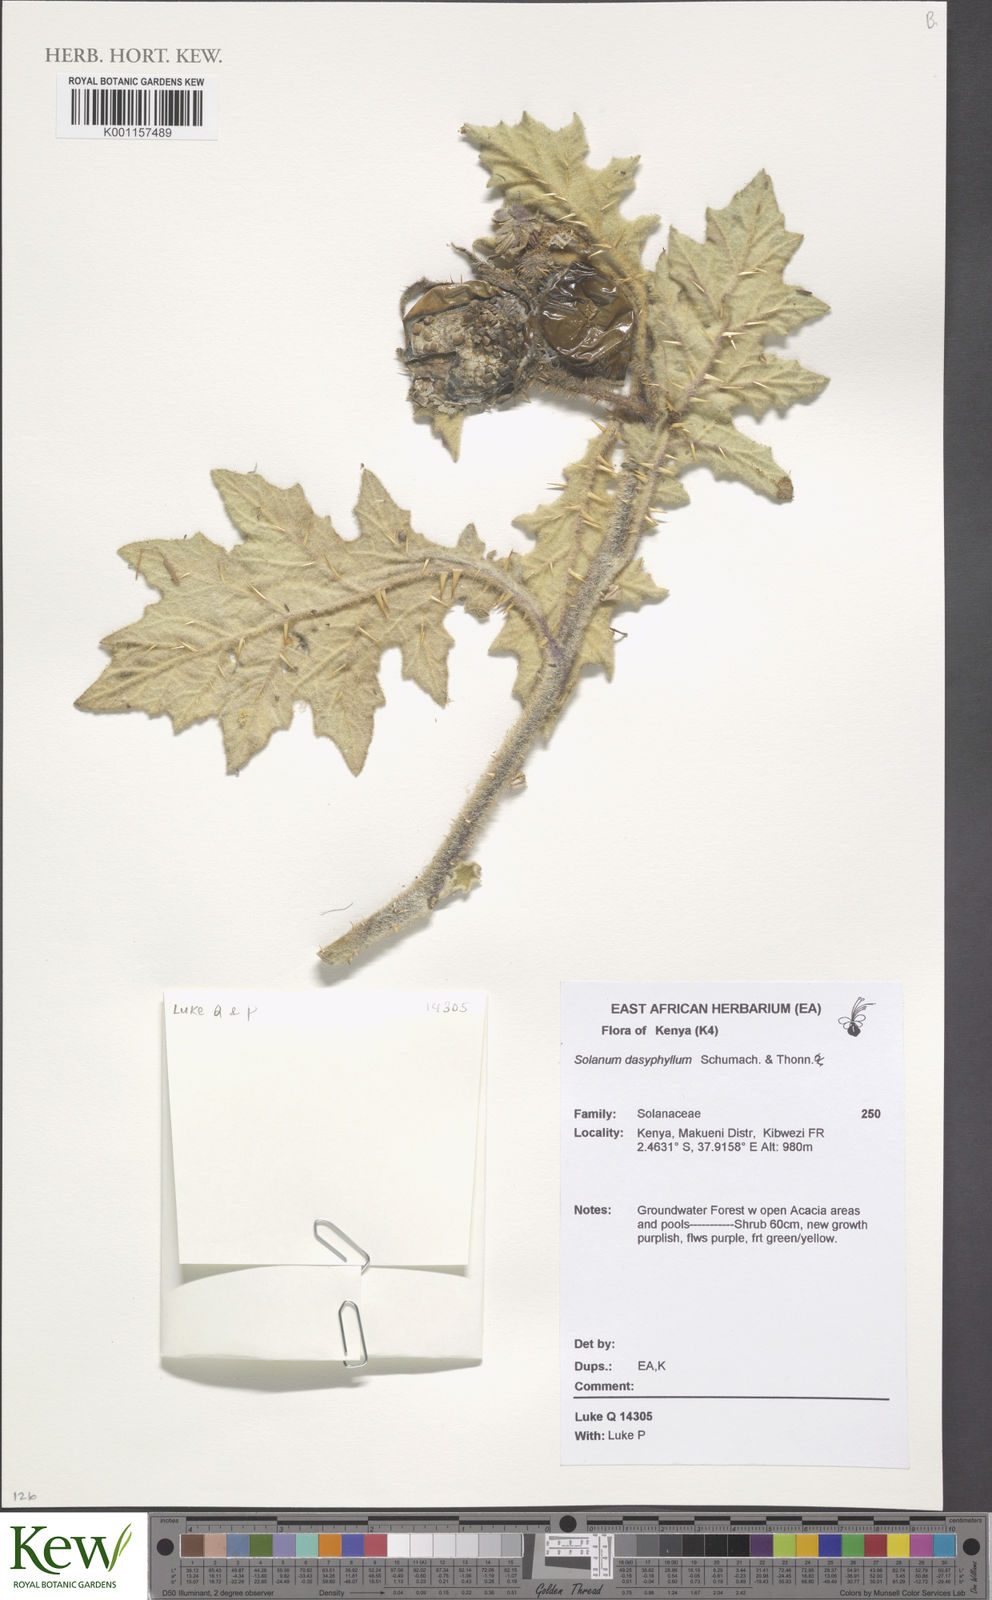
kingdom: Plantae
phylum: Tracheophyta
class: Magnoliopsida
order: Solanales
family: Solanaceae
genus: Solanum
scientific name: Solanum dasyphyllum
